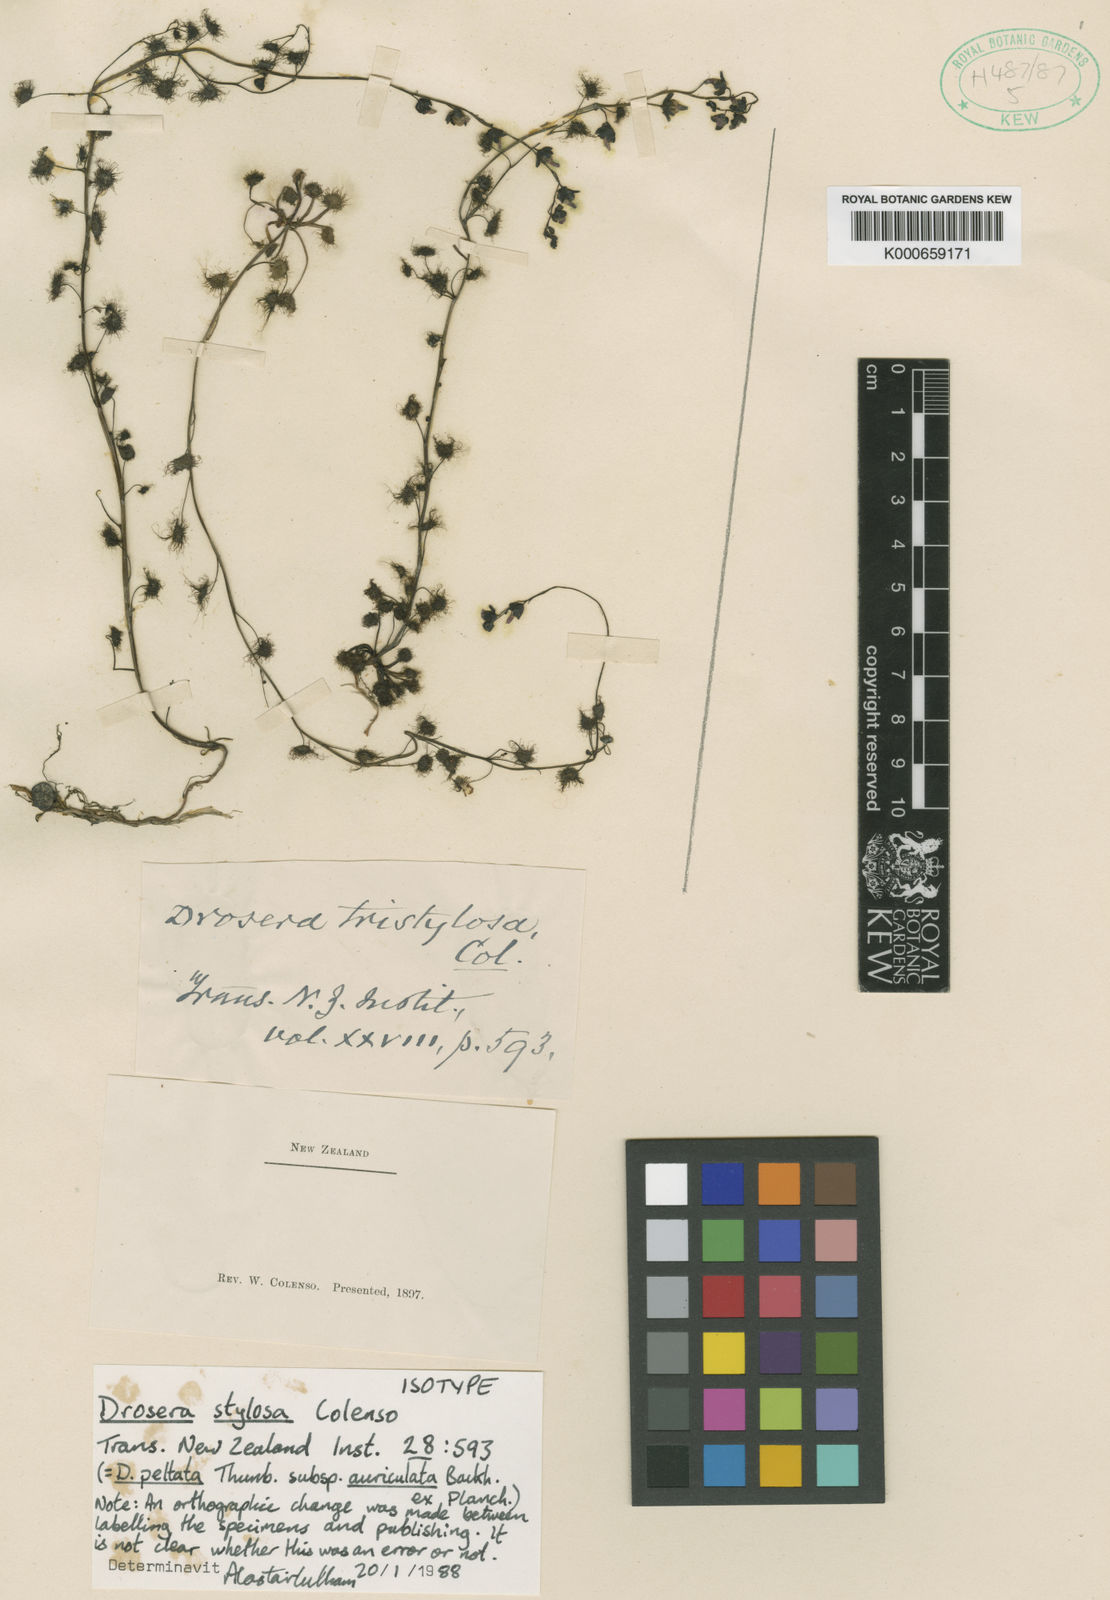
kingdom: Plantae
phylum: Tracheophyta
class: Magnoliopsida
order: Caryophyllales
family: Droseraceae
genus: Drosera
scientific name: Drosera peltata
